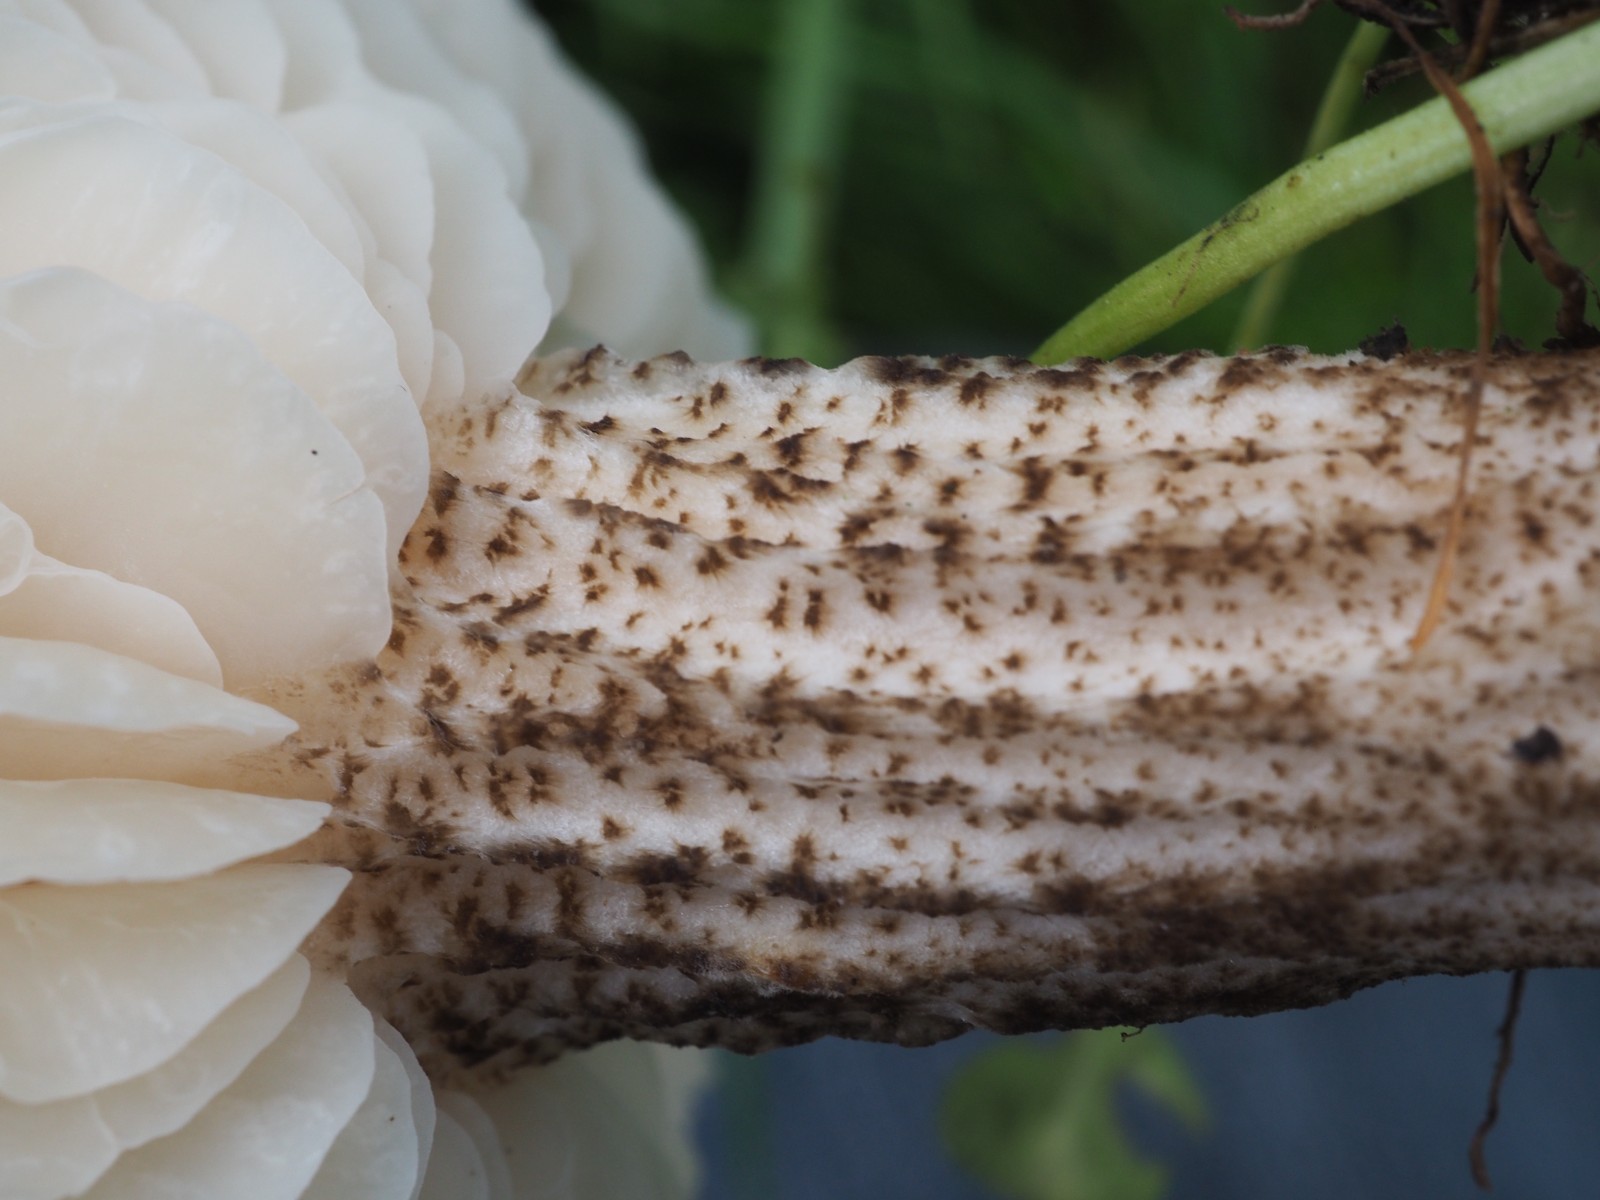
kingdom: Fungi
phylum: Basidiomycota
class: Agaricomycetes
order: Agaricales
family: Tricholomataceae
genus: Melanoleuca
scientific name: Melanoleuca verrucipes
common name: rufodet munkehat
